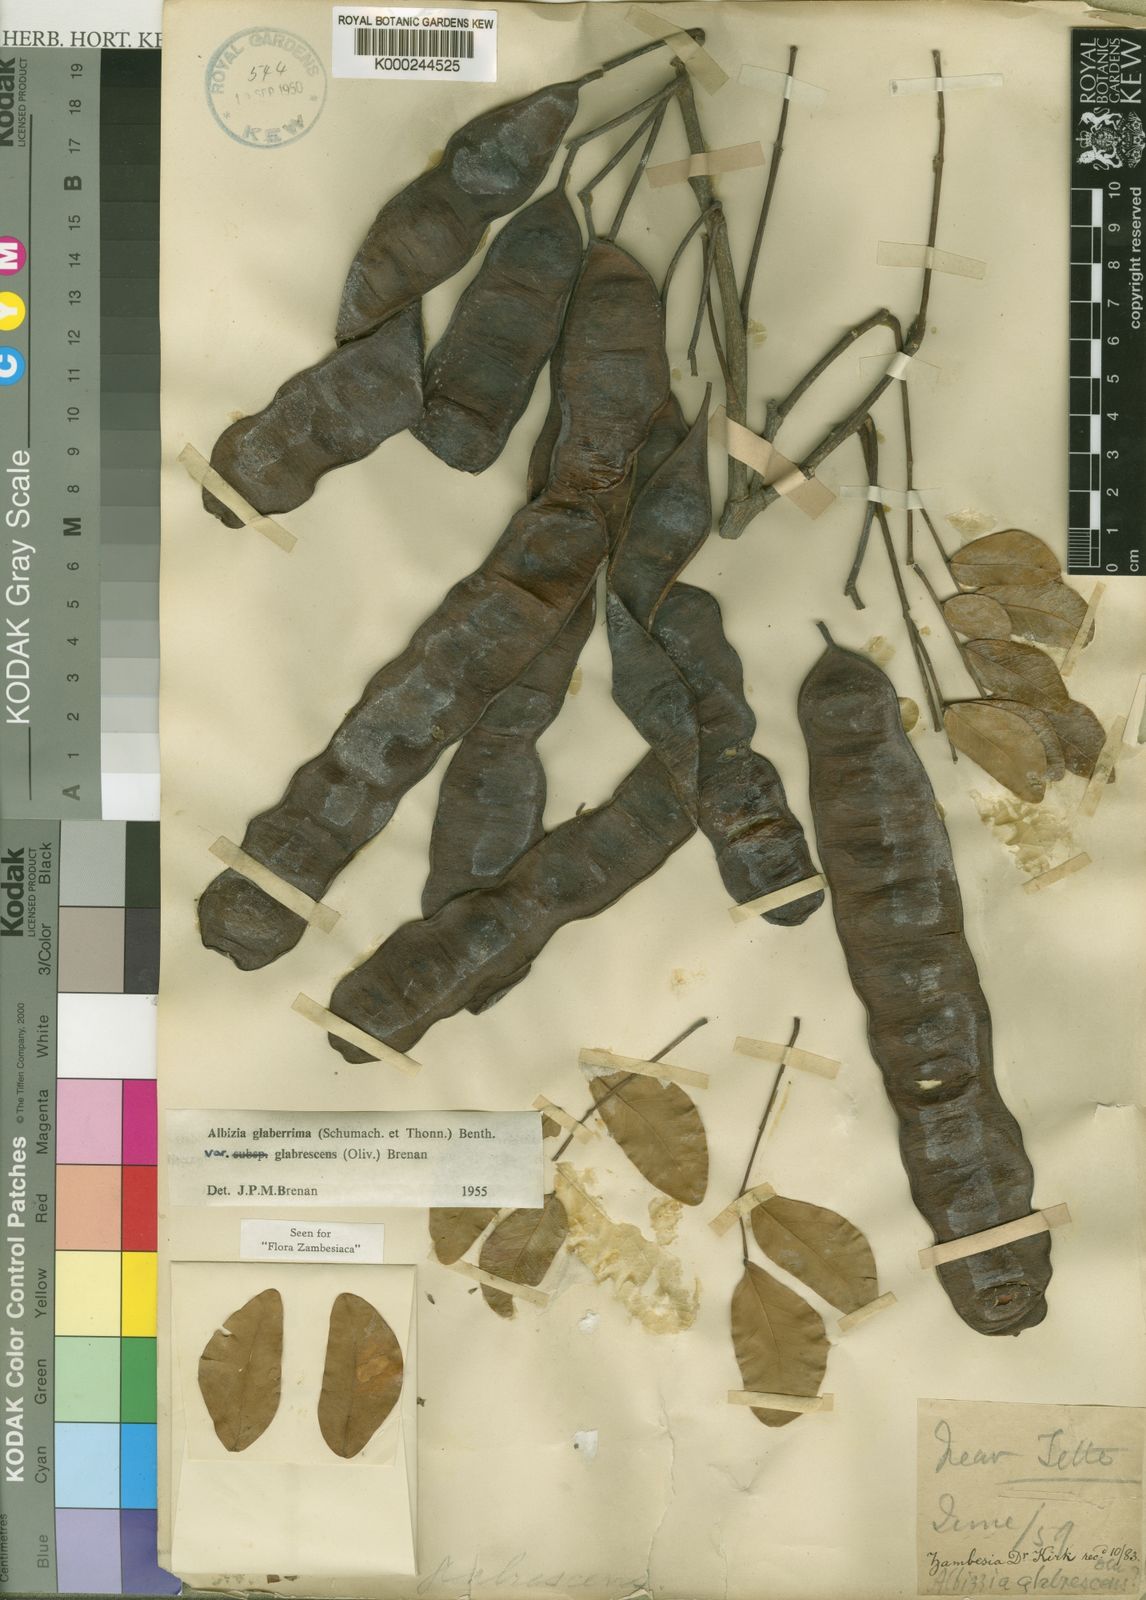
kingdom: Plantae
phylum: Tracheophyta
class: Magnoliopsida
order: Fabales
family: Fabaceae
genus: Albizia
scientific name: Albizia glaberrima
